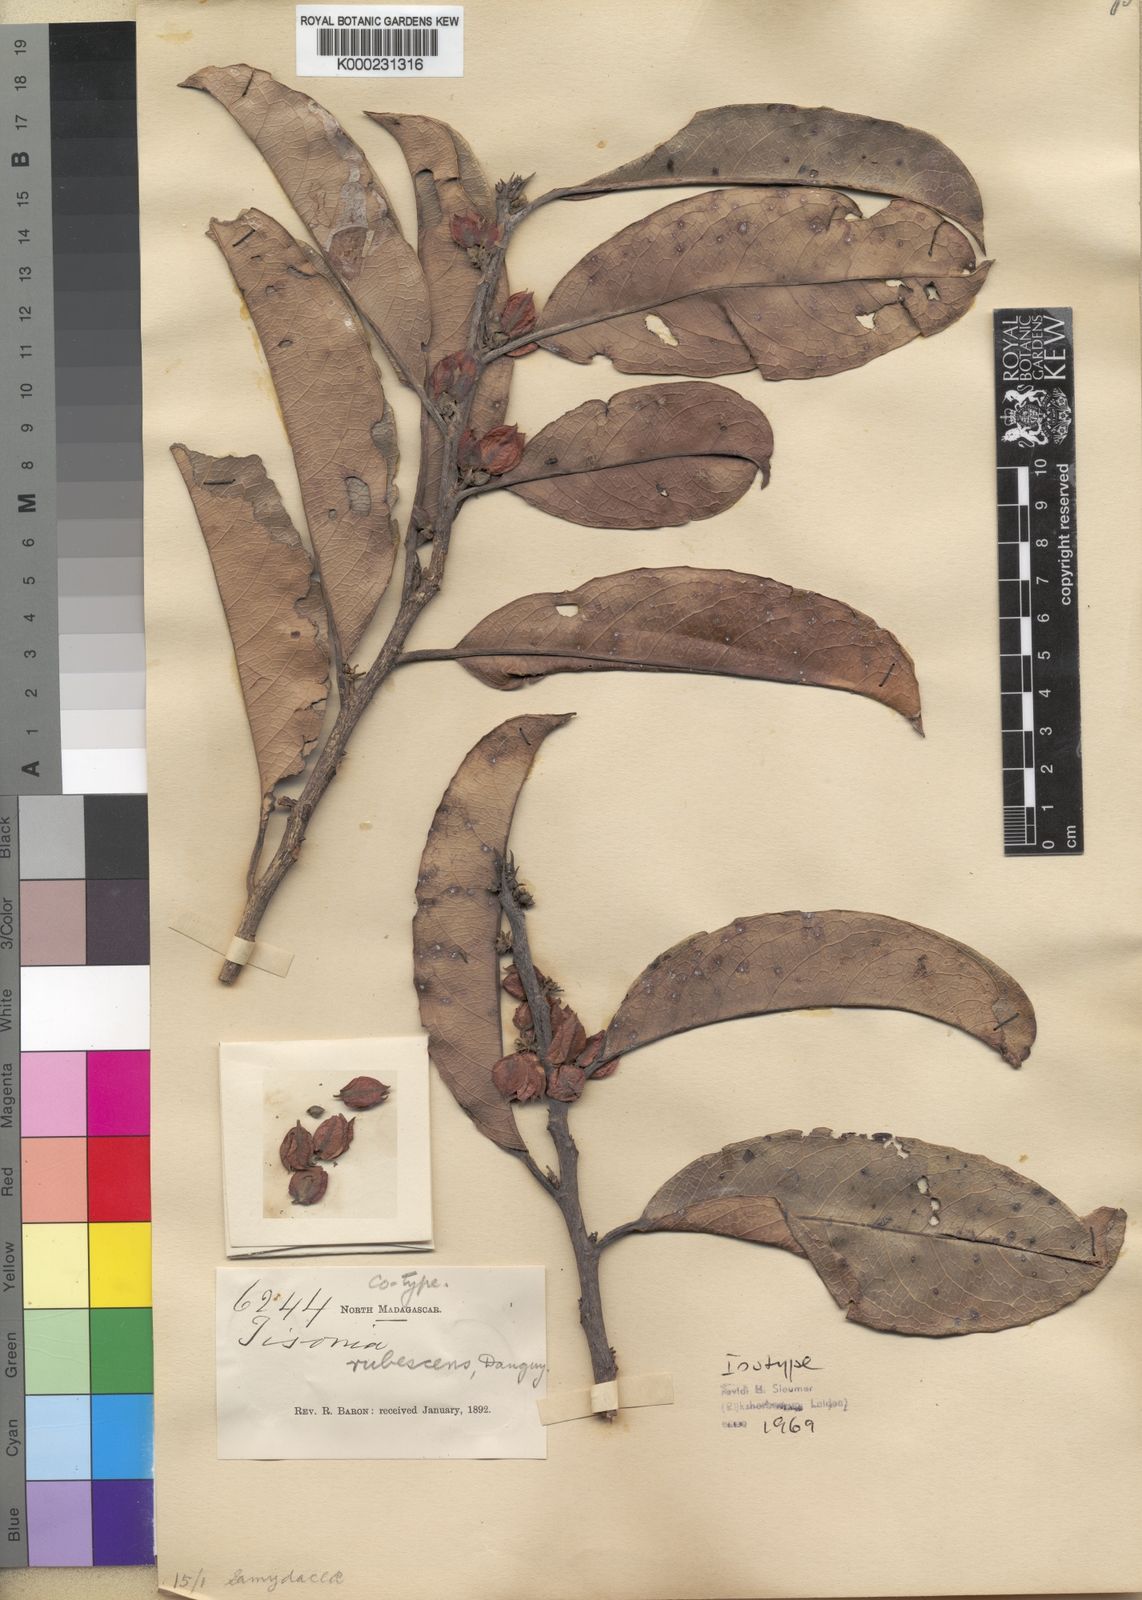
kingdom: Plantae
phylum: Tracheophyta
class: Magnoliopsida
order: Malpighiales
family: Salicaceae
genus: Tisonia
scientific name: Tisonia rubescens
